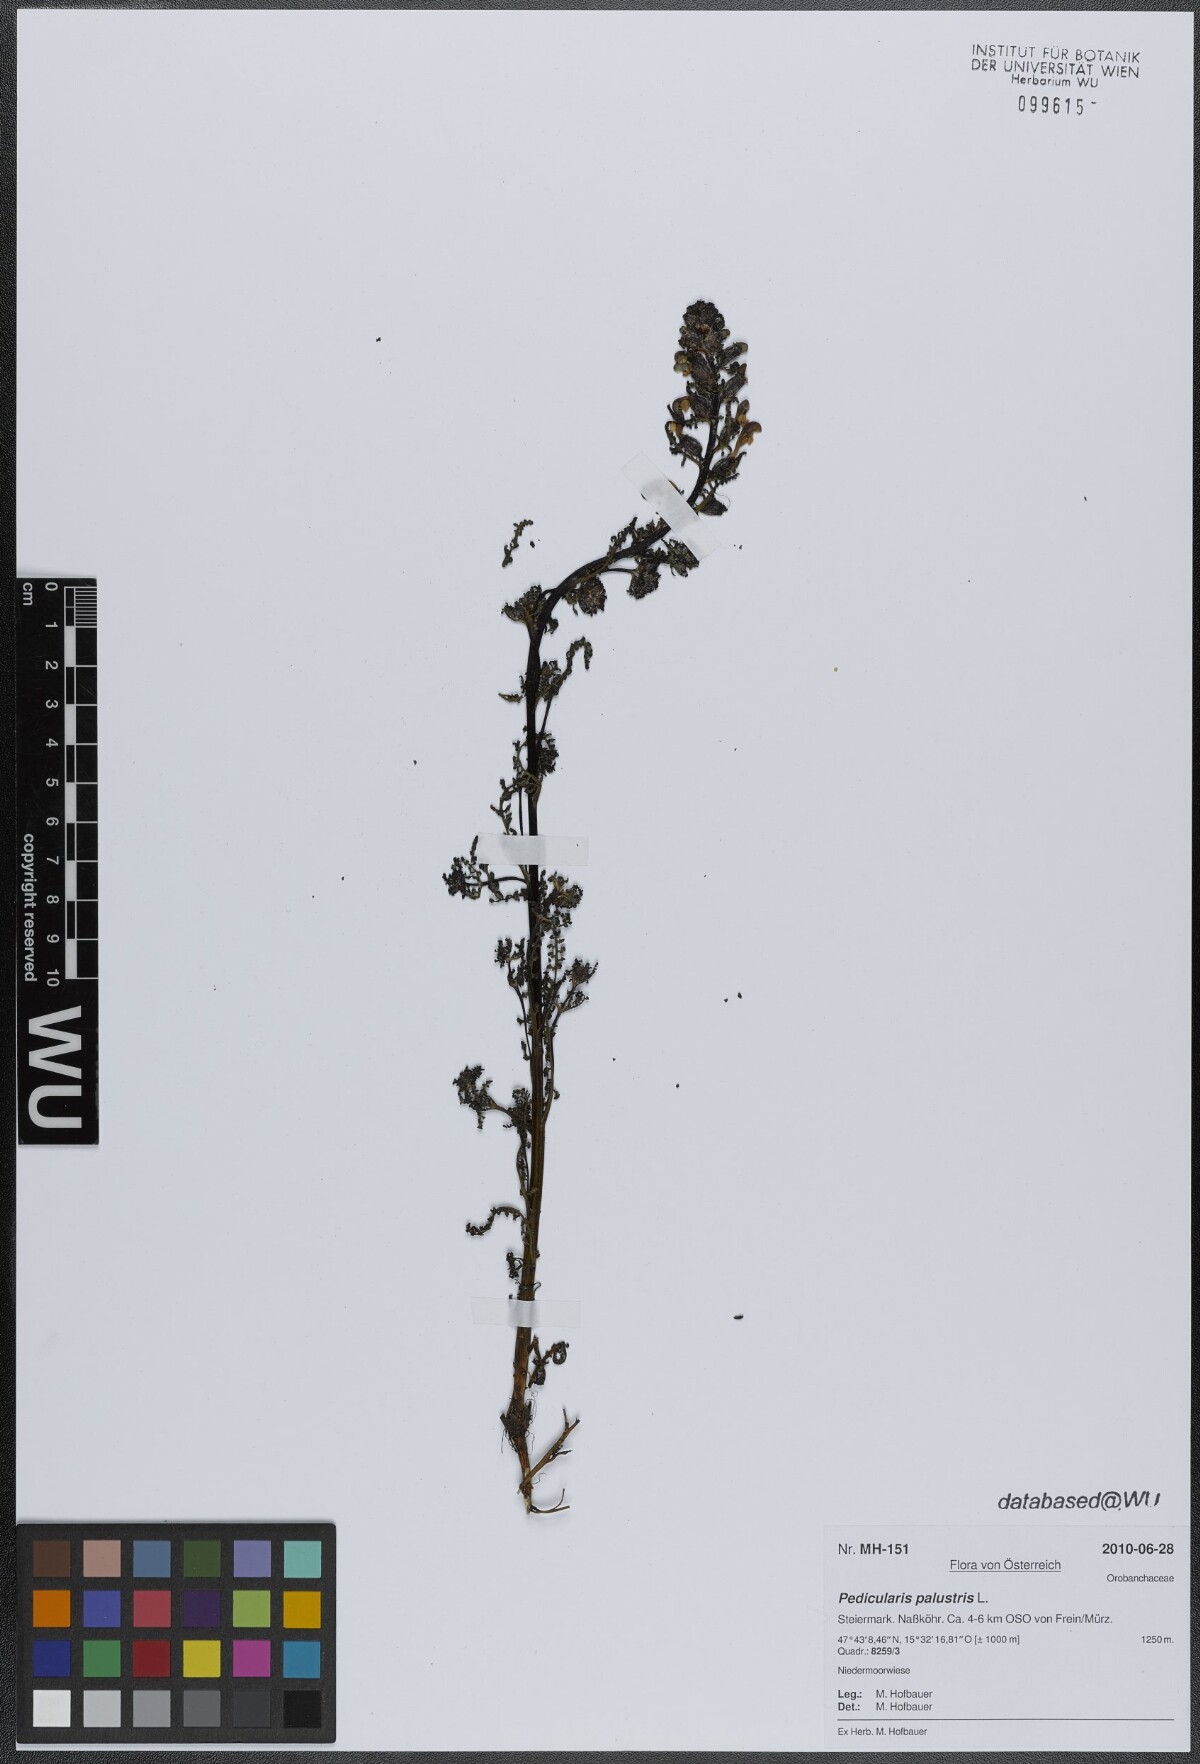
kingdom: Plantae
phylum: Tracheophyta
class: Magnoliopsida
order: Lamiales
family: Orobanchaceae
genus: Pedicularis
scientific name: Pedicularis palustris
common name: Marsh lousewort
